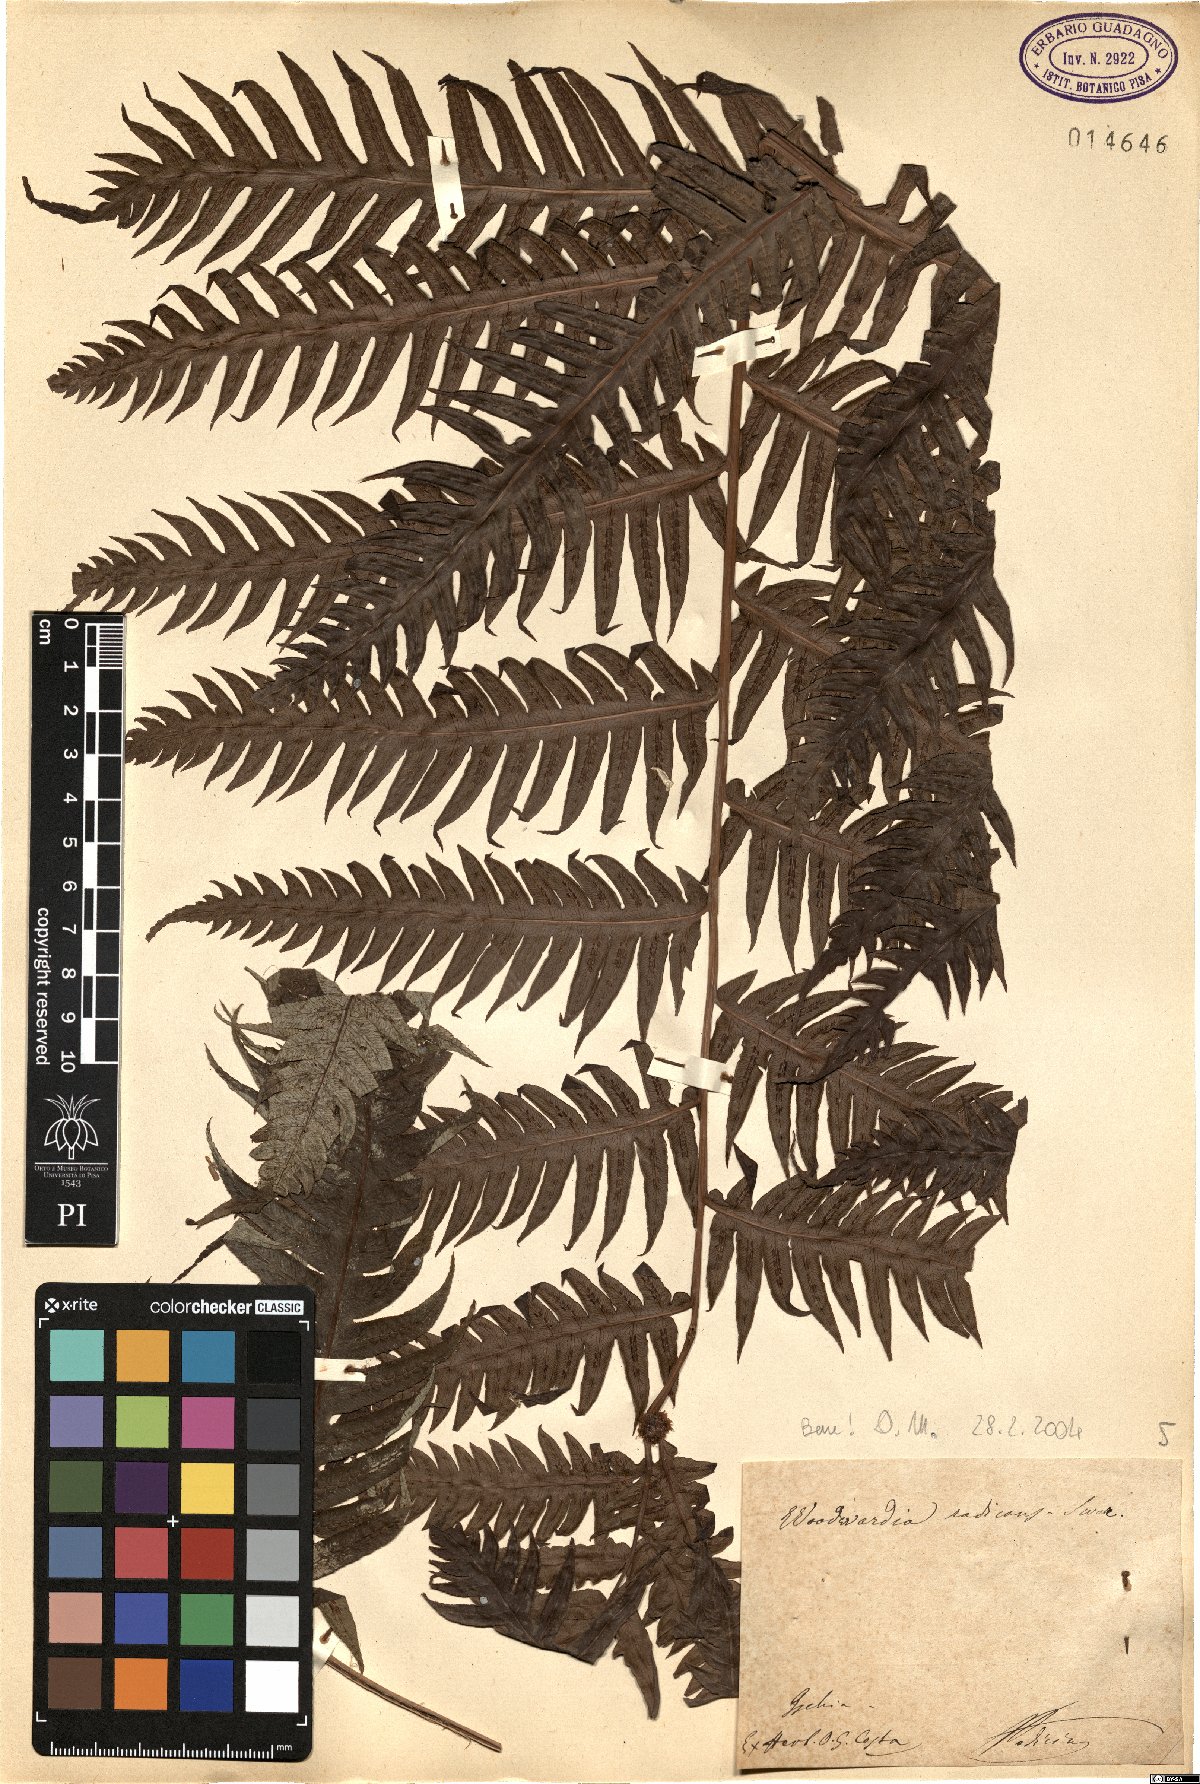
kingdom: Plantae
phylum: Tracheophyta
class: Polypodiopsida
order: Polypodiales
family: Blechnaceae
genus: Woodwardia
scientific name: Woodwardia radicans
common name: Rooting chainfern
